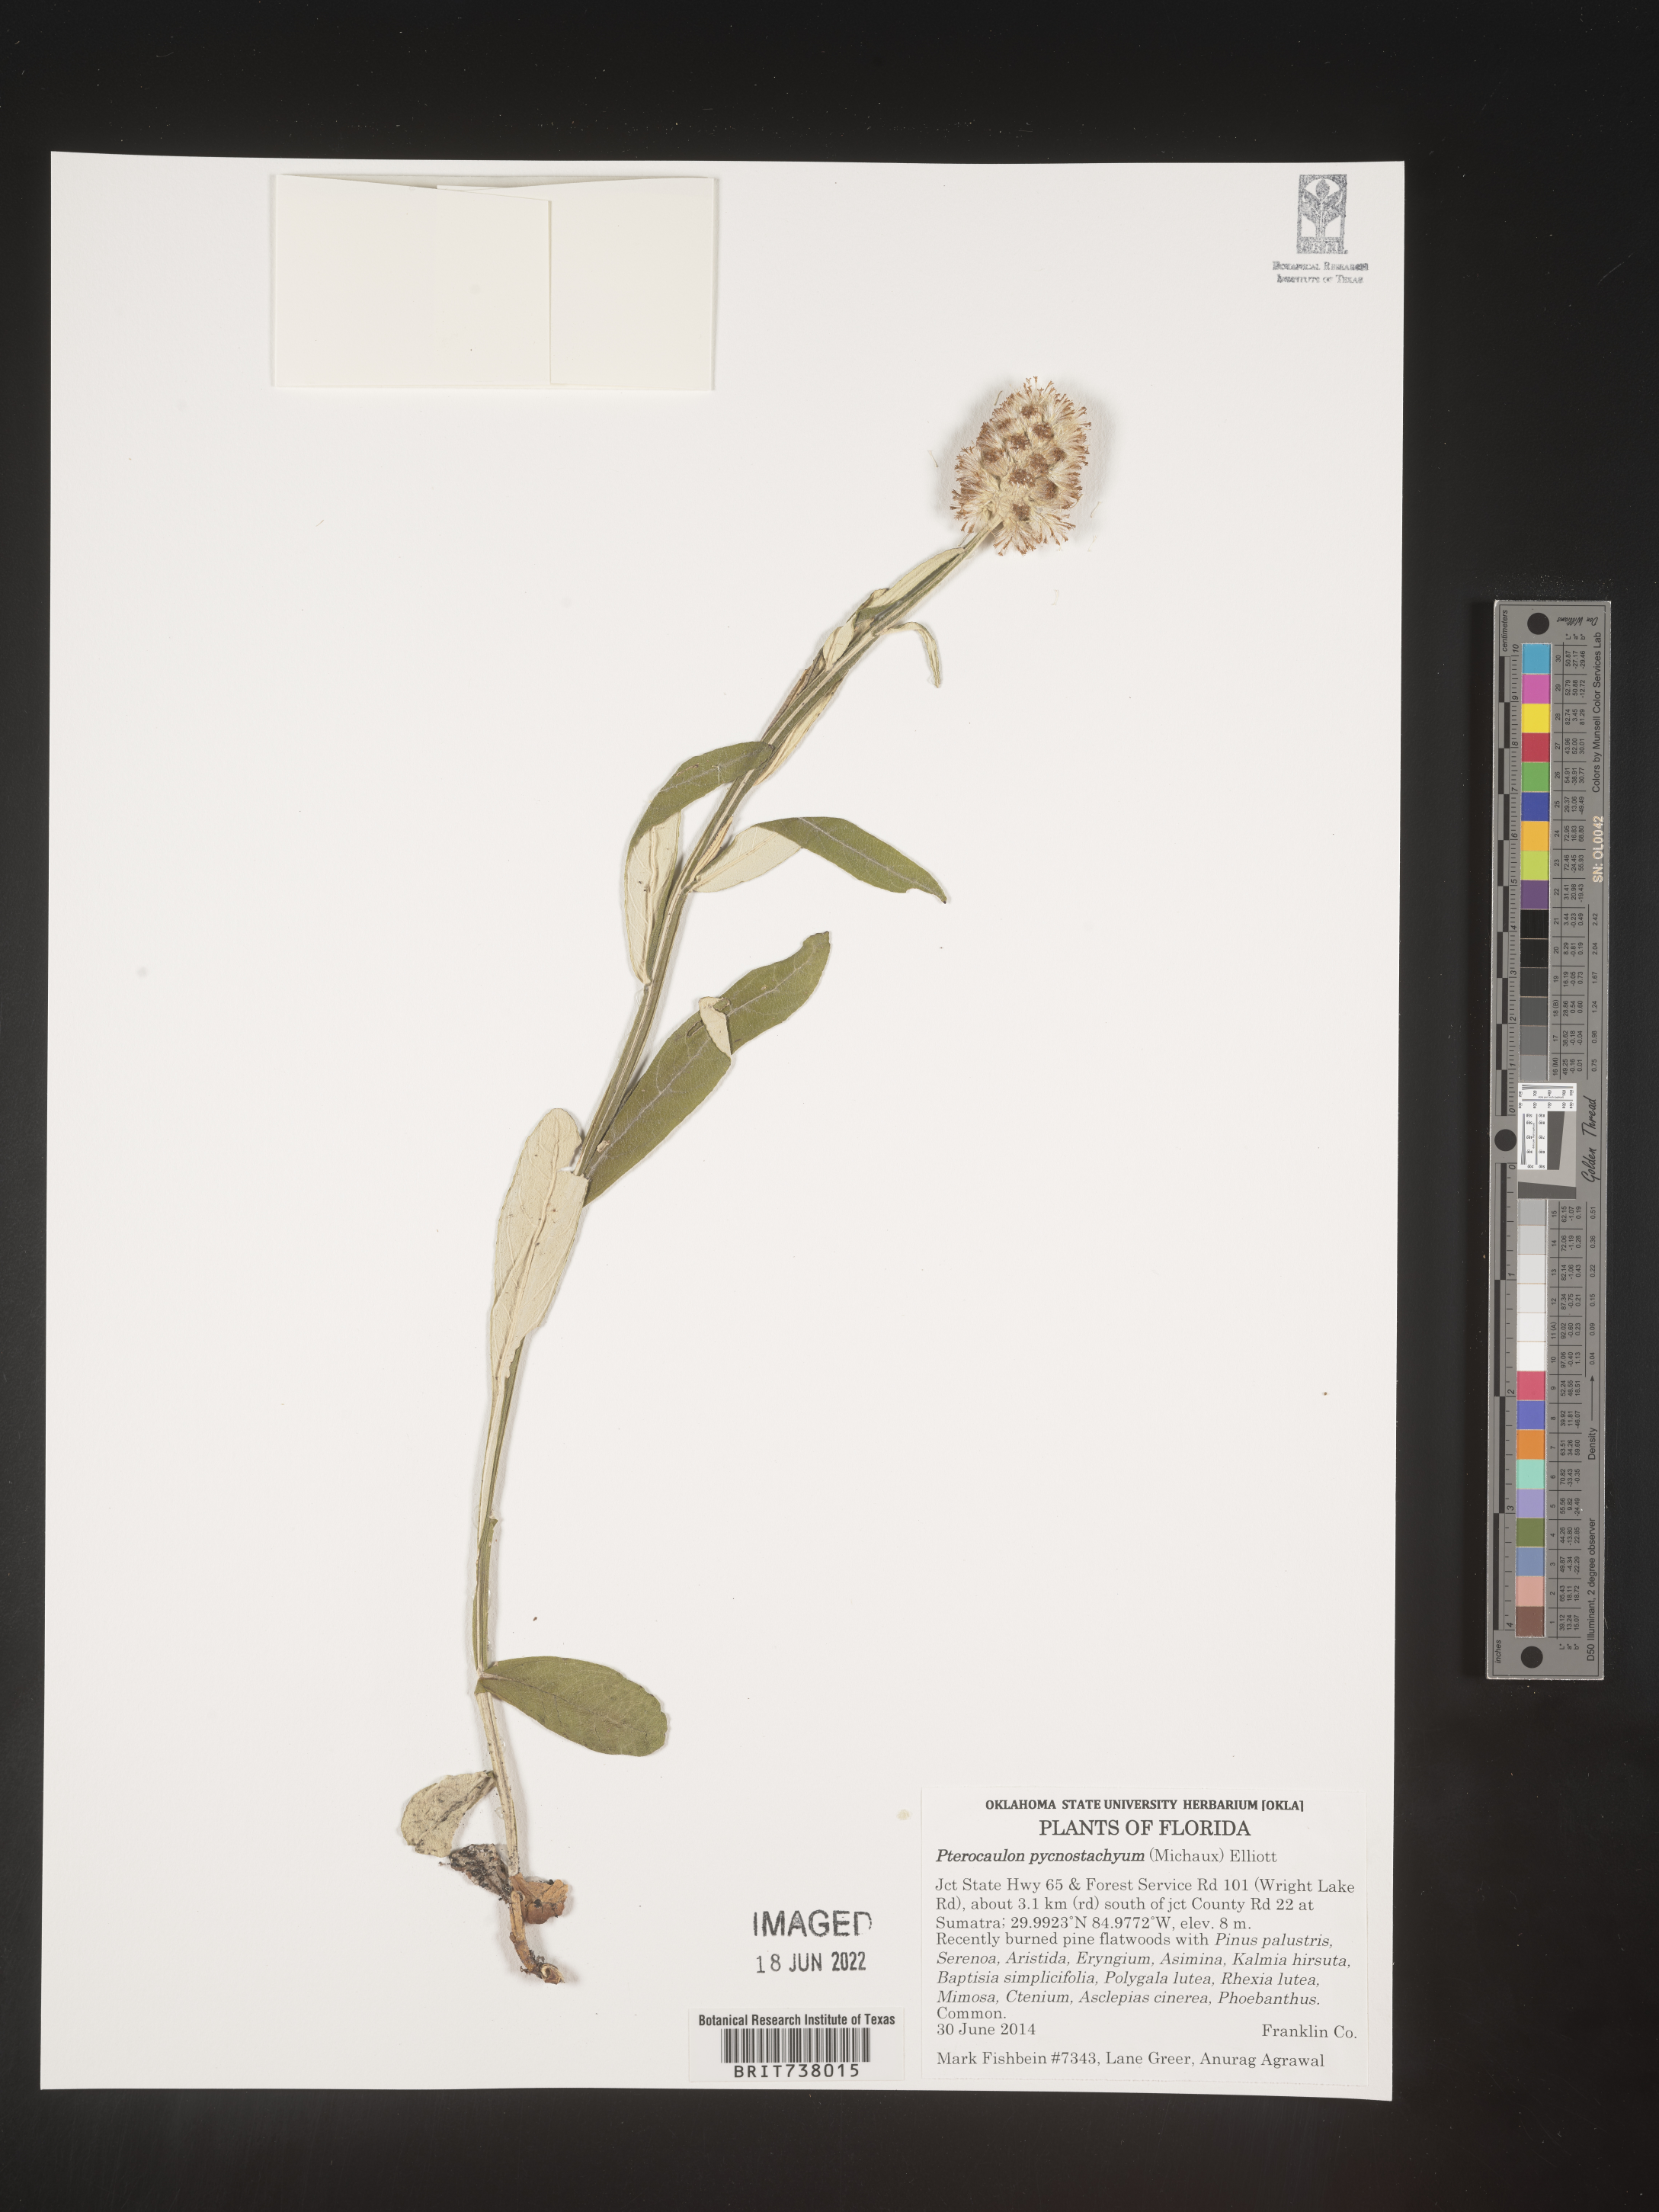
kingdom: Plantae
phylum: Tracheophyta
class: Magnoliopsida
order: Asterales
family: Asteraceae
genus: Pterocaulon
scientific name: Pterocaulon pycnostachyum
